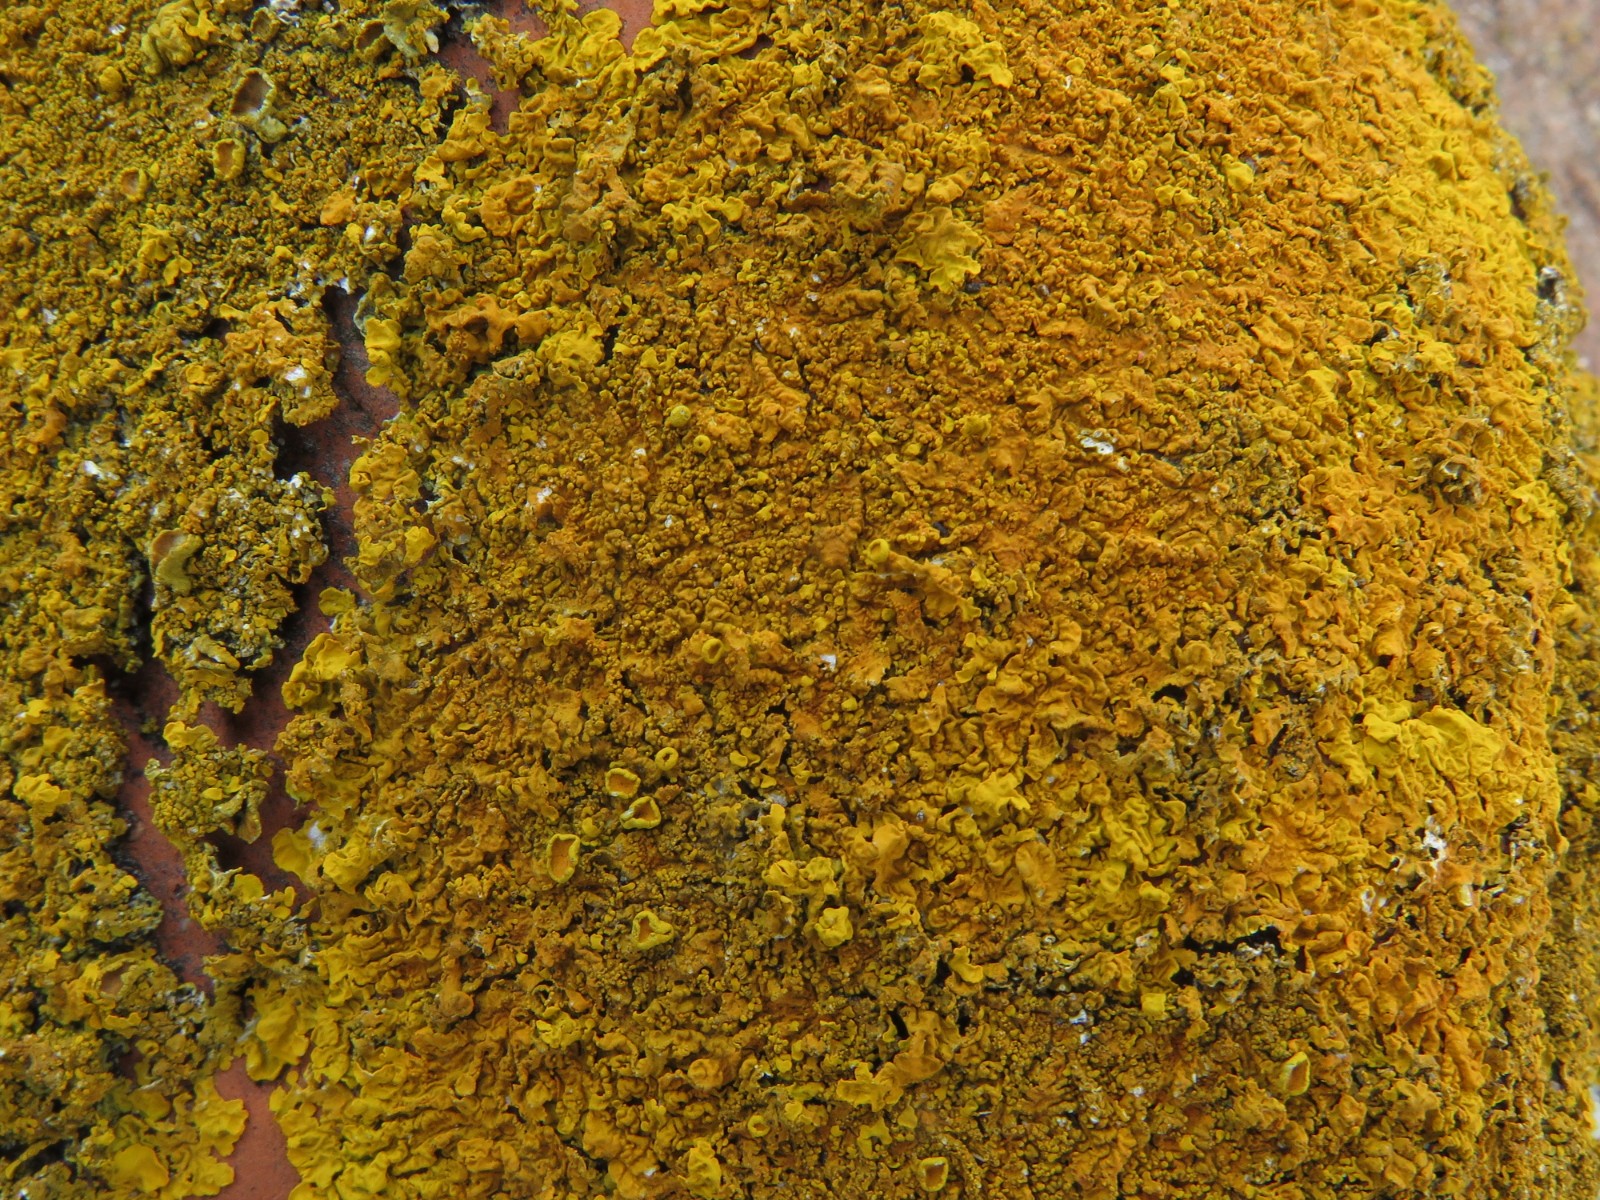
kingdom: Fungi
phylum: Ascomycota
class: Lecanoromycetes
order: Teloschistales
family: Teloschistaceae
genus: Xanthoria
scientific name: Xanthoria calcicola
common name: vortet væggelav
